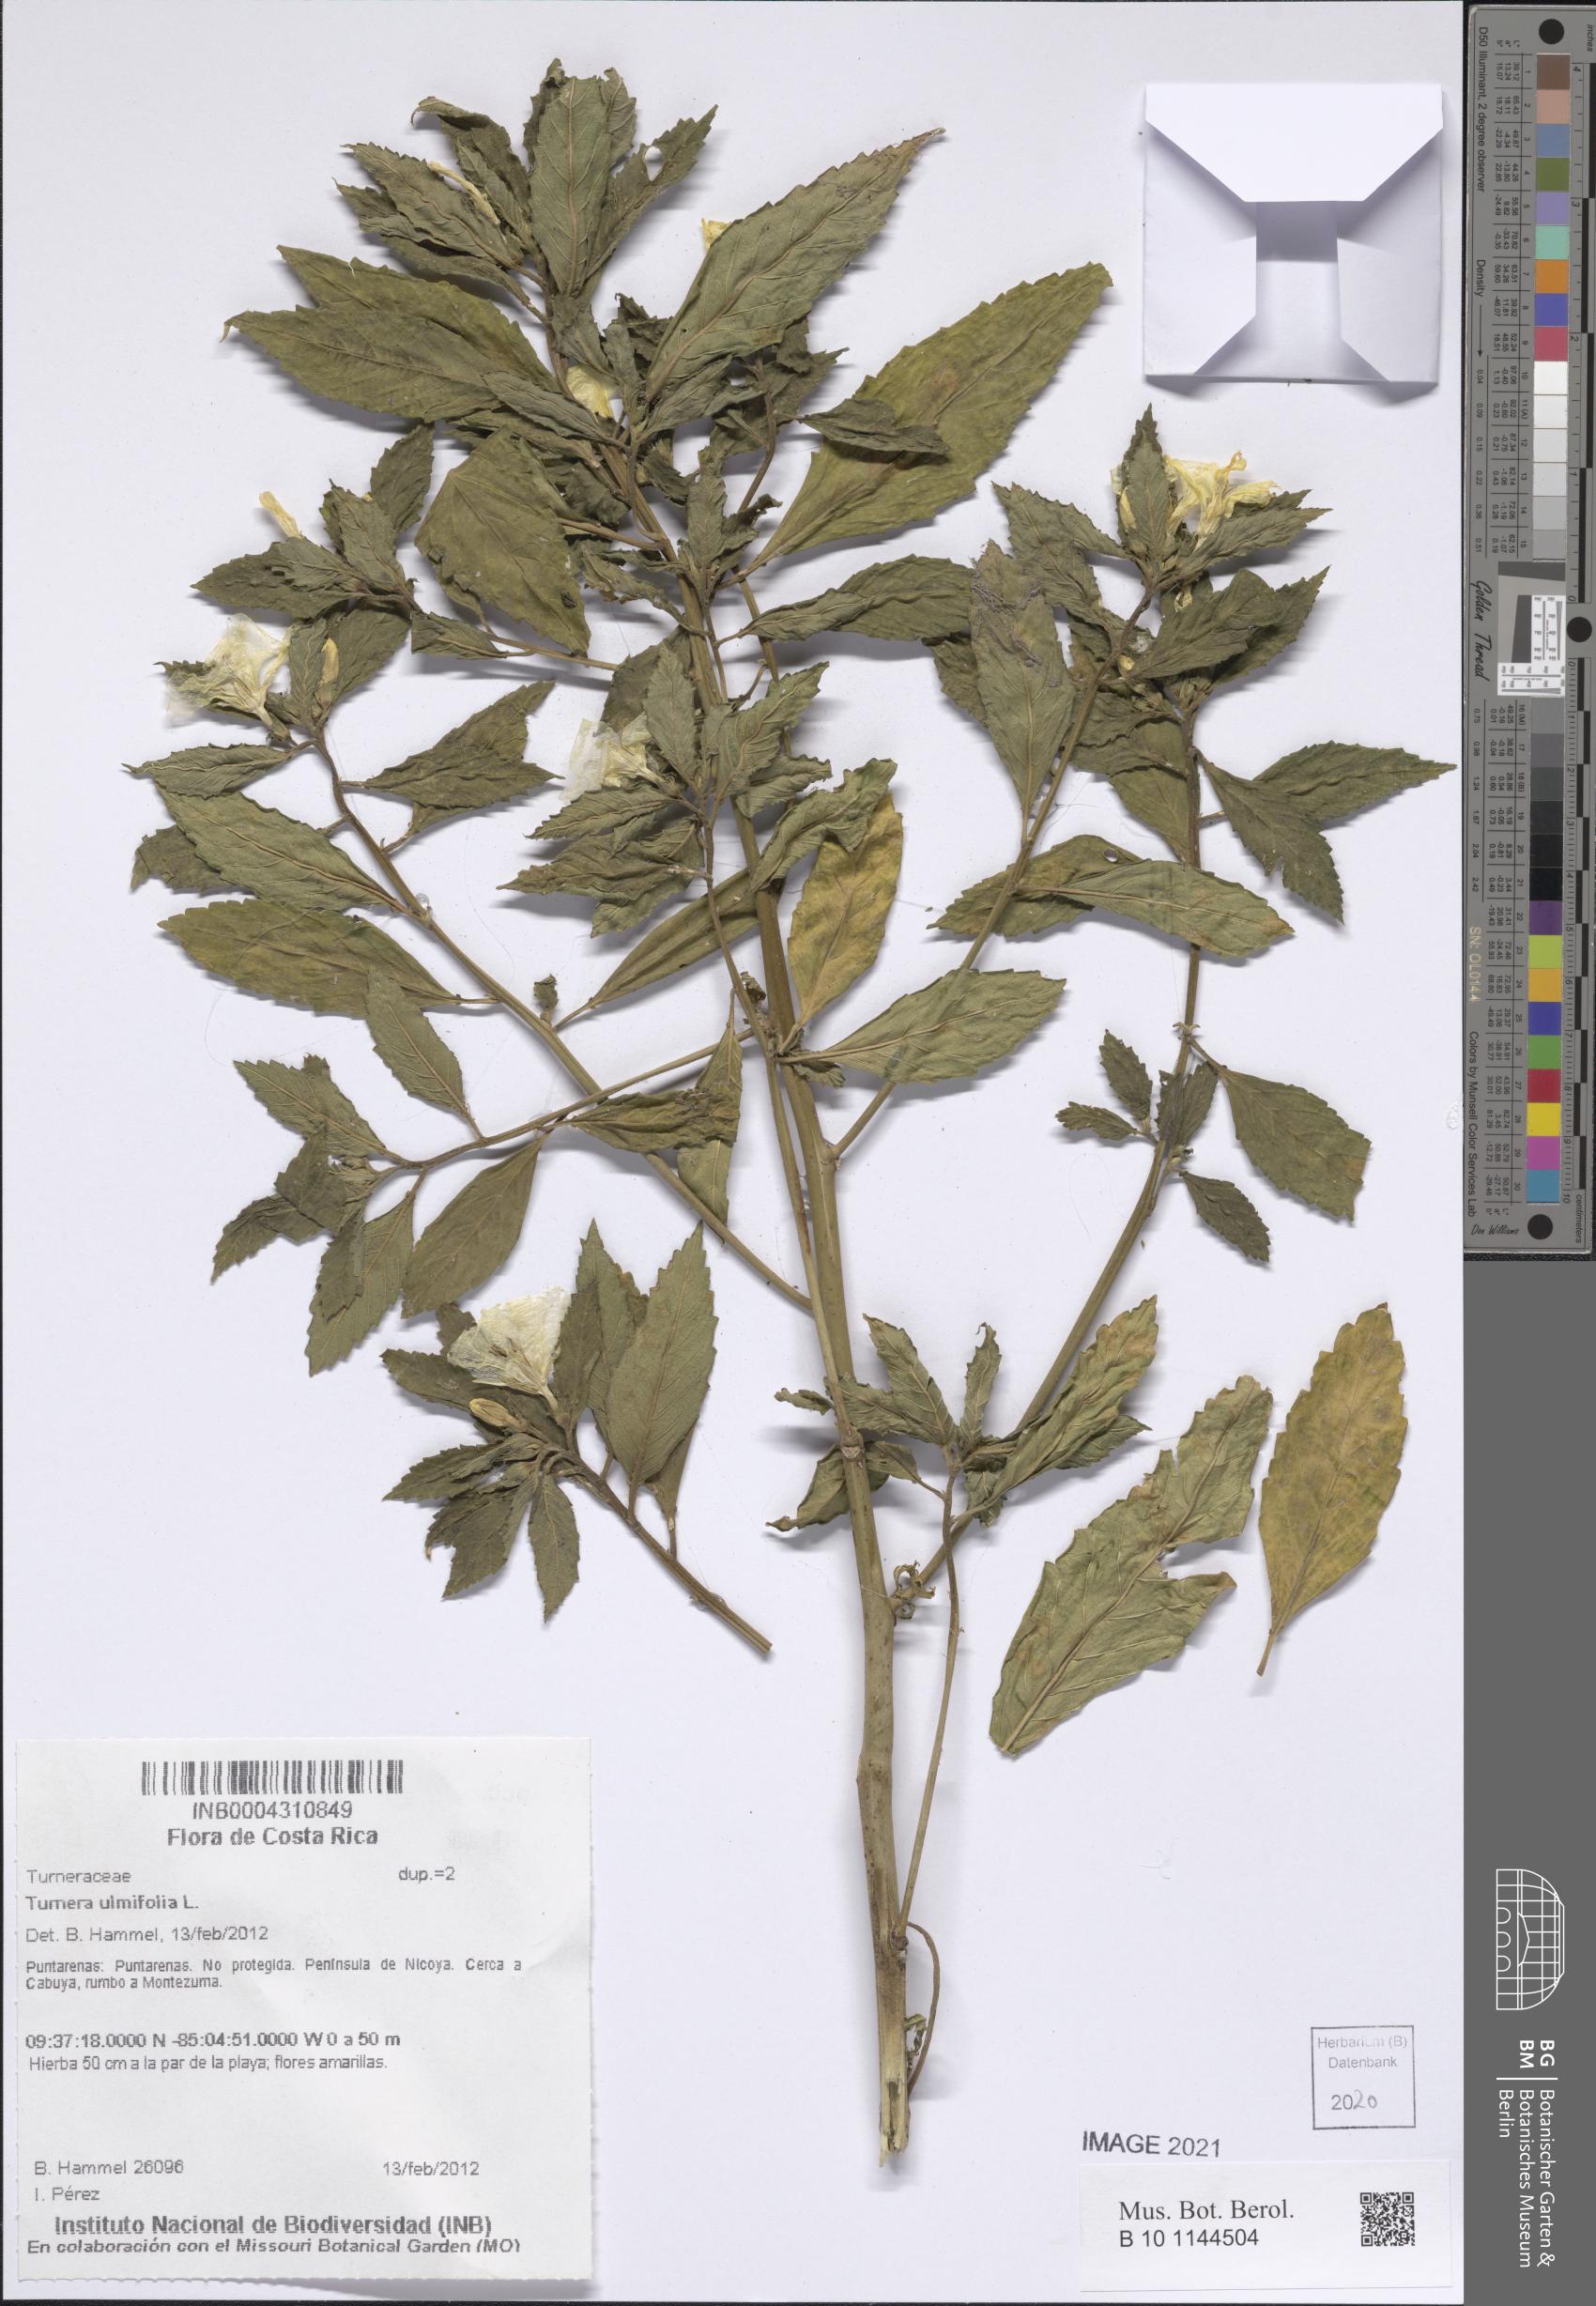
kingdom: Plantae
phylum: Tracheophyta
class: Magnoliopsida
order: Malpighiales
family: Turneraceae
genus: Turnera
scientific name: Turnera ulmifolia
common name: Ramgoat dashalong
